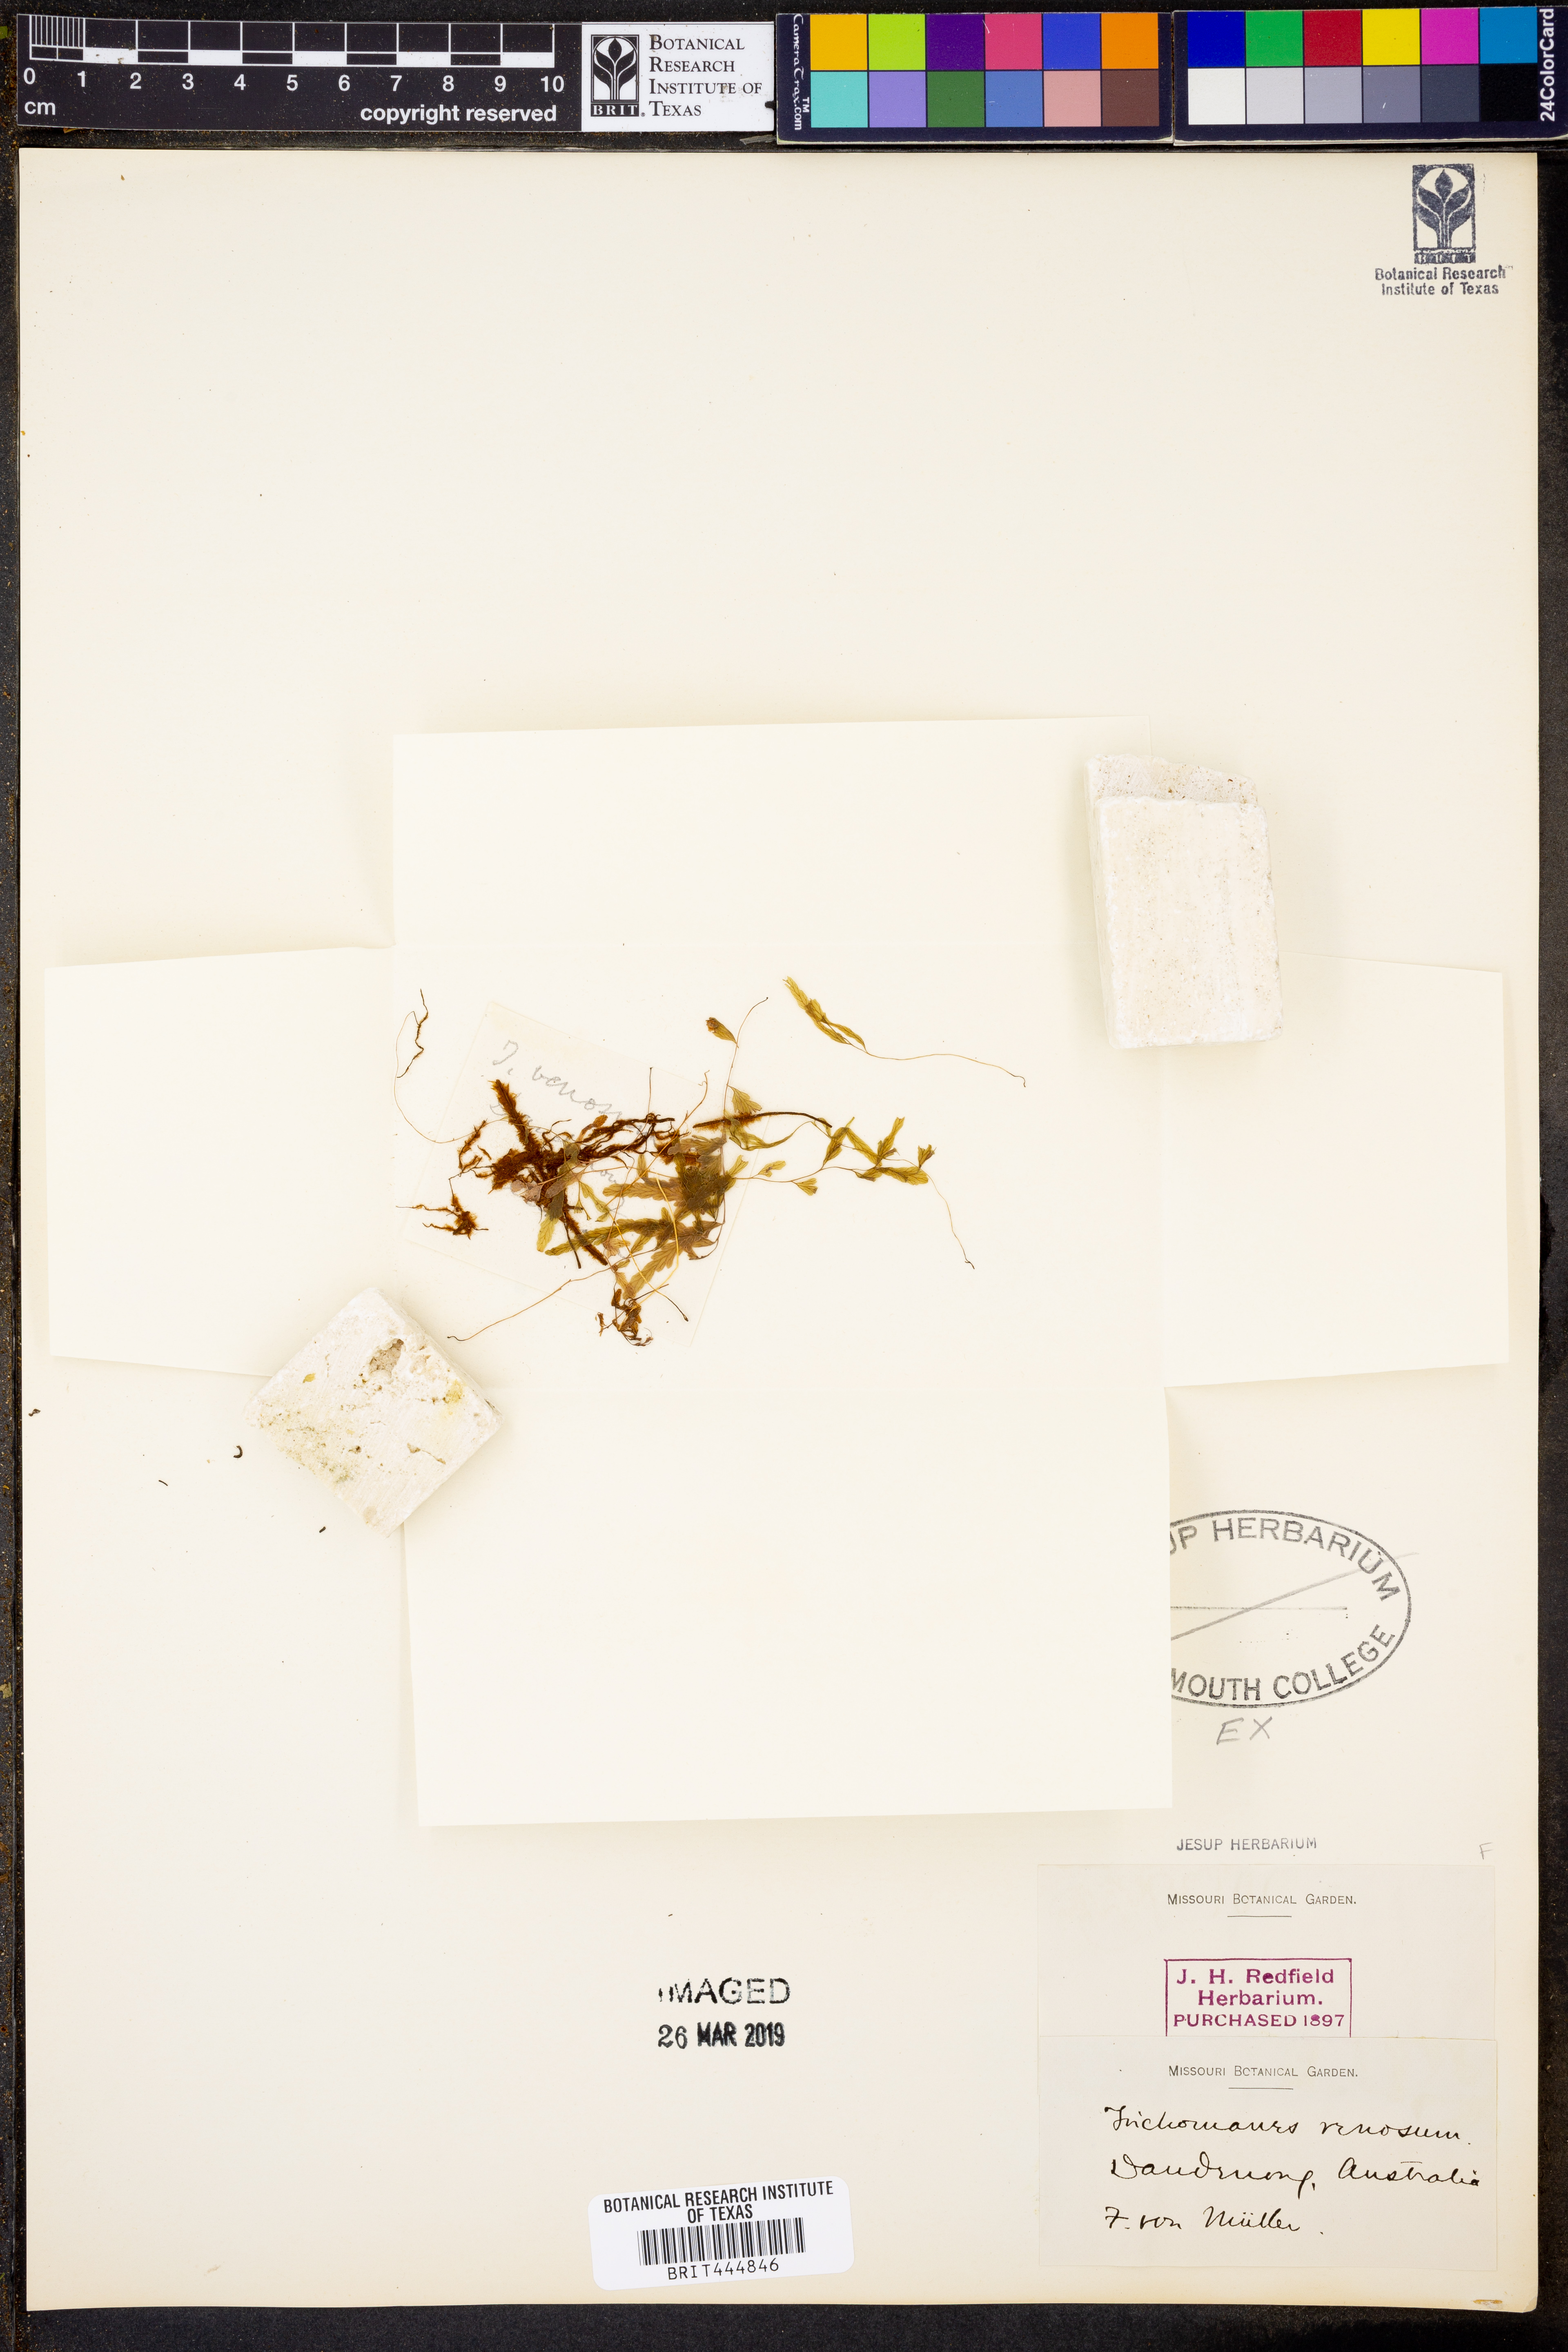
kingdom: Plantae
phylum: Tracheophyta
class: Polypodiopsida
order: Hymenophyllales
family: Hymenophyllaceae
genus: Polyphlebium
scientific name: Polyphlebium venosum
